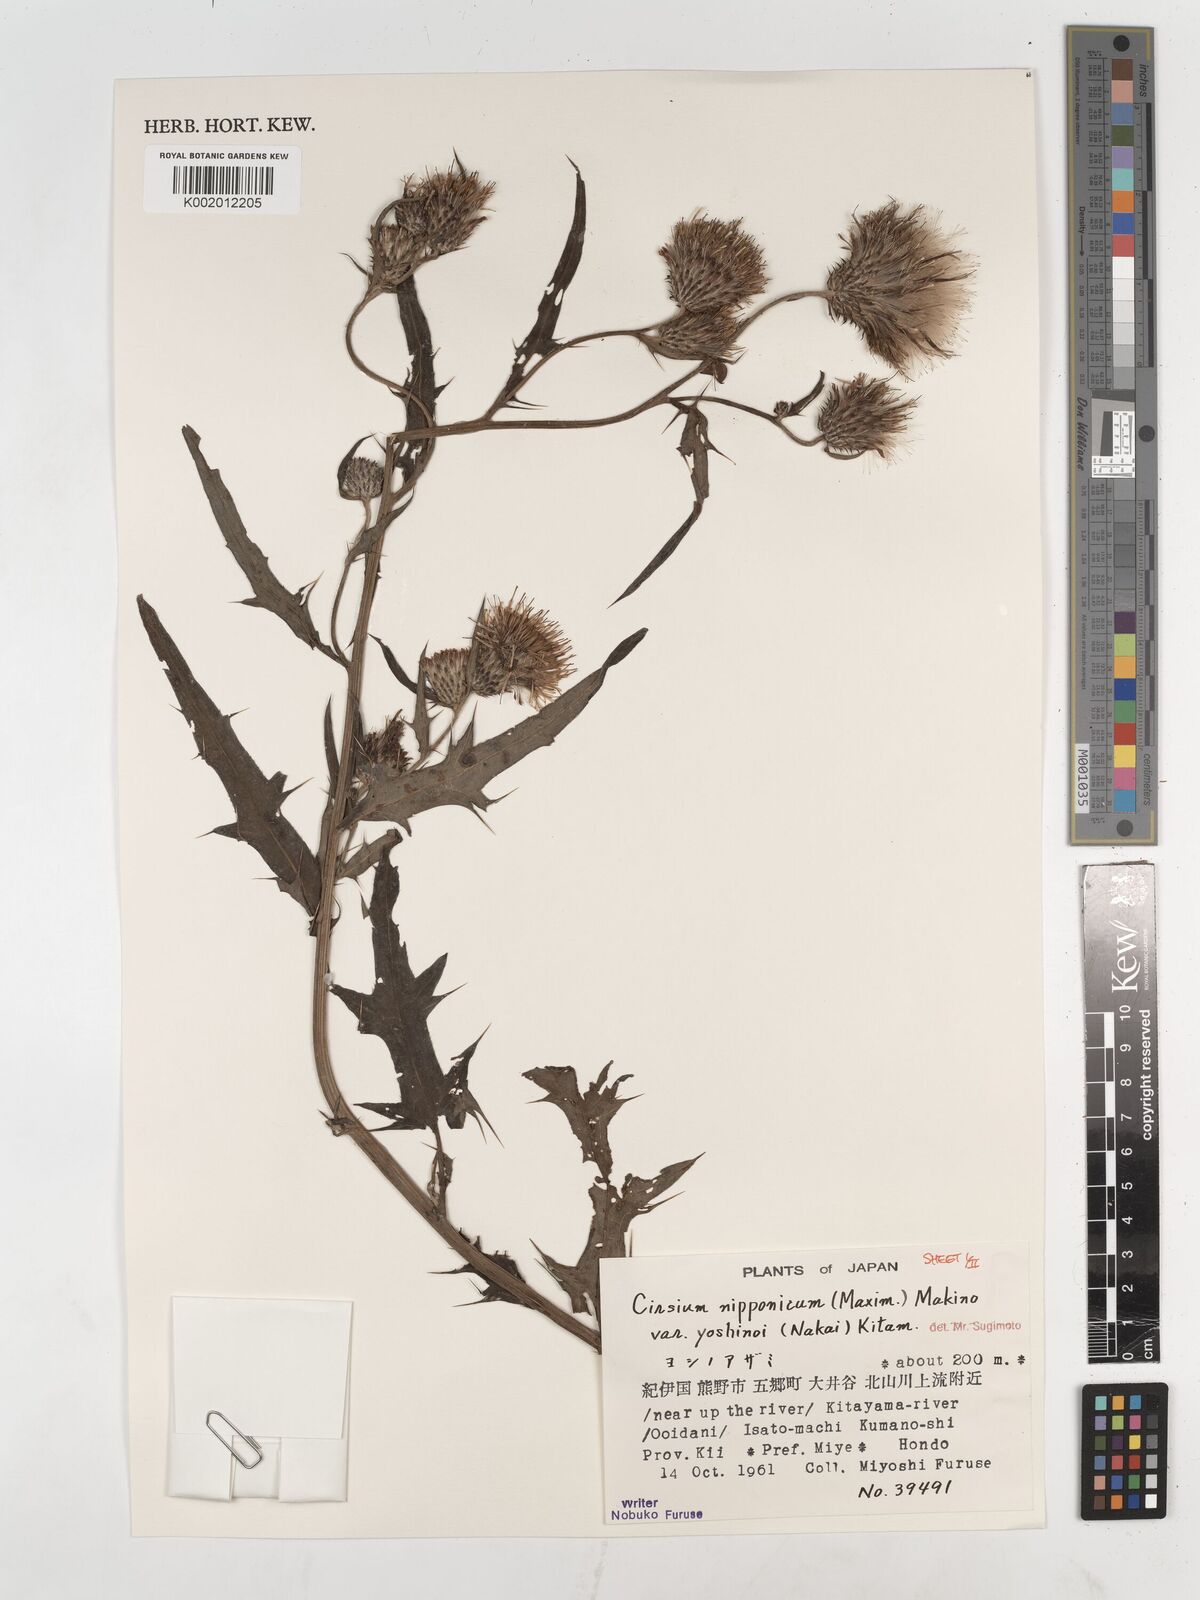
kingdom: Plantae
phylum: Tracheophyta
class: Magnoliopsida
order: Asterales
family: Asteraceae
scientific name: Asteraceae
